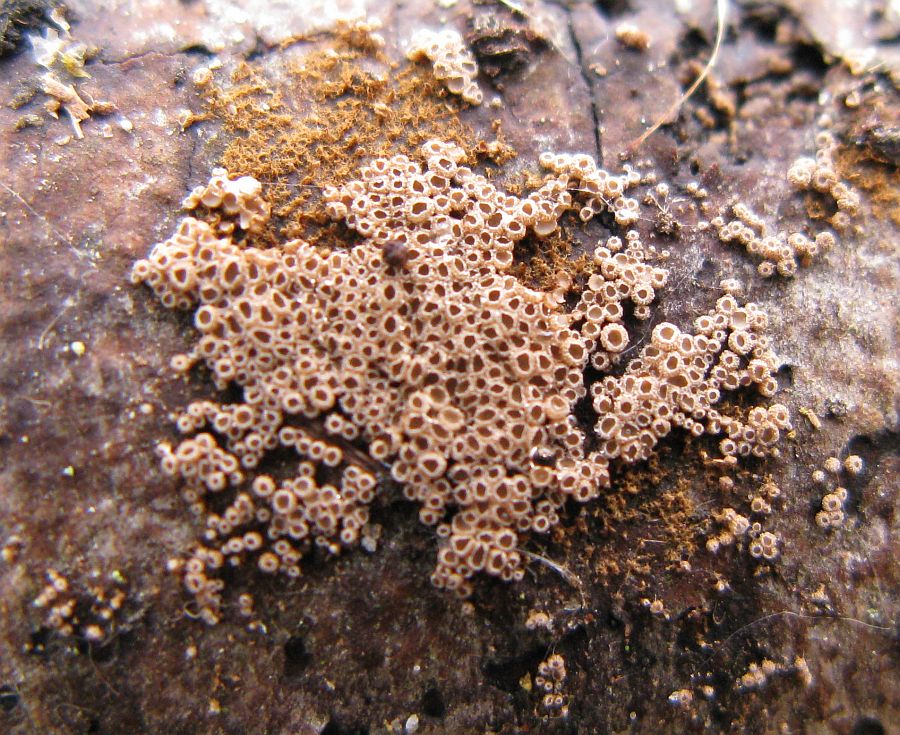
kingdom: Fungi
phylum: Basidiomycota
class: Agaricomycetes
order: Agaricales
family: Niaceae
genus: Merismodes
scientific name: Merismodes anomala
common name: almindelig læderskål
